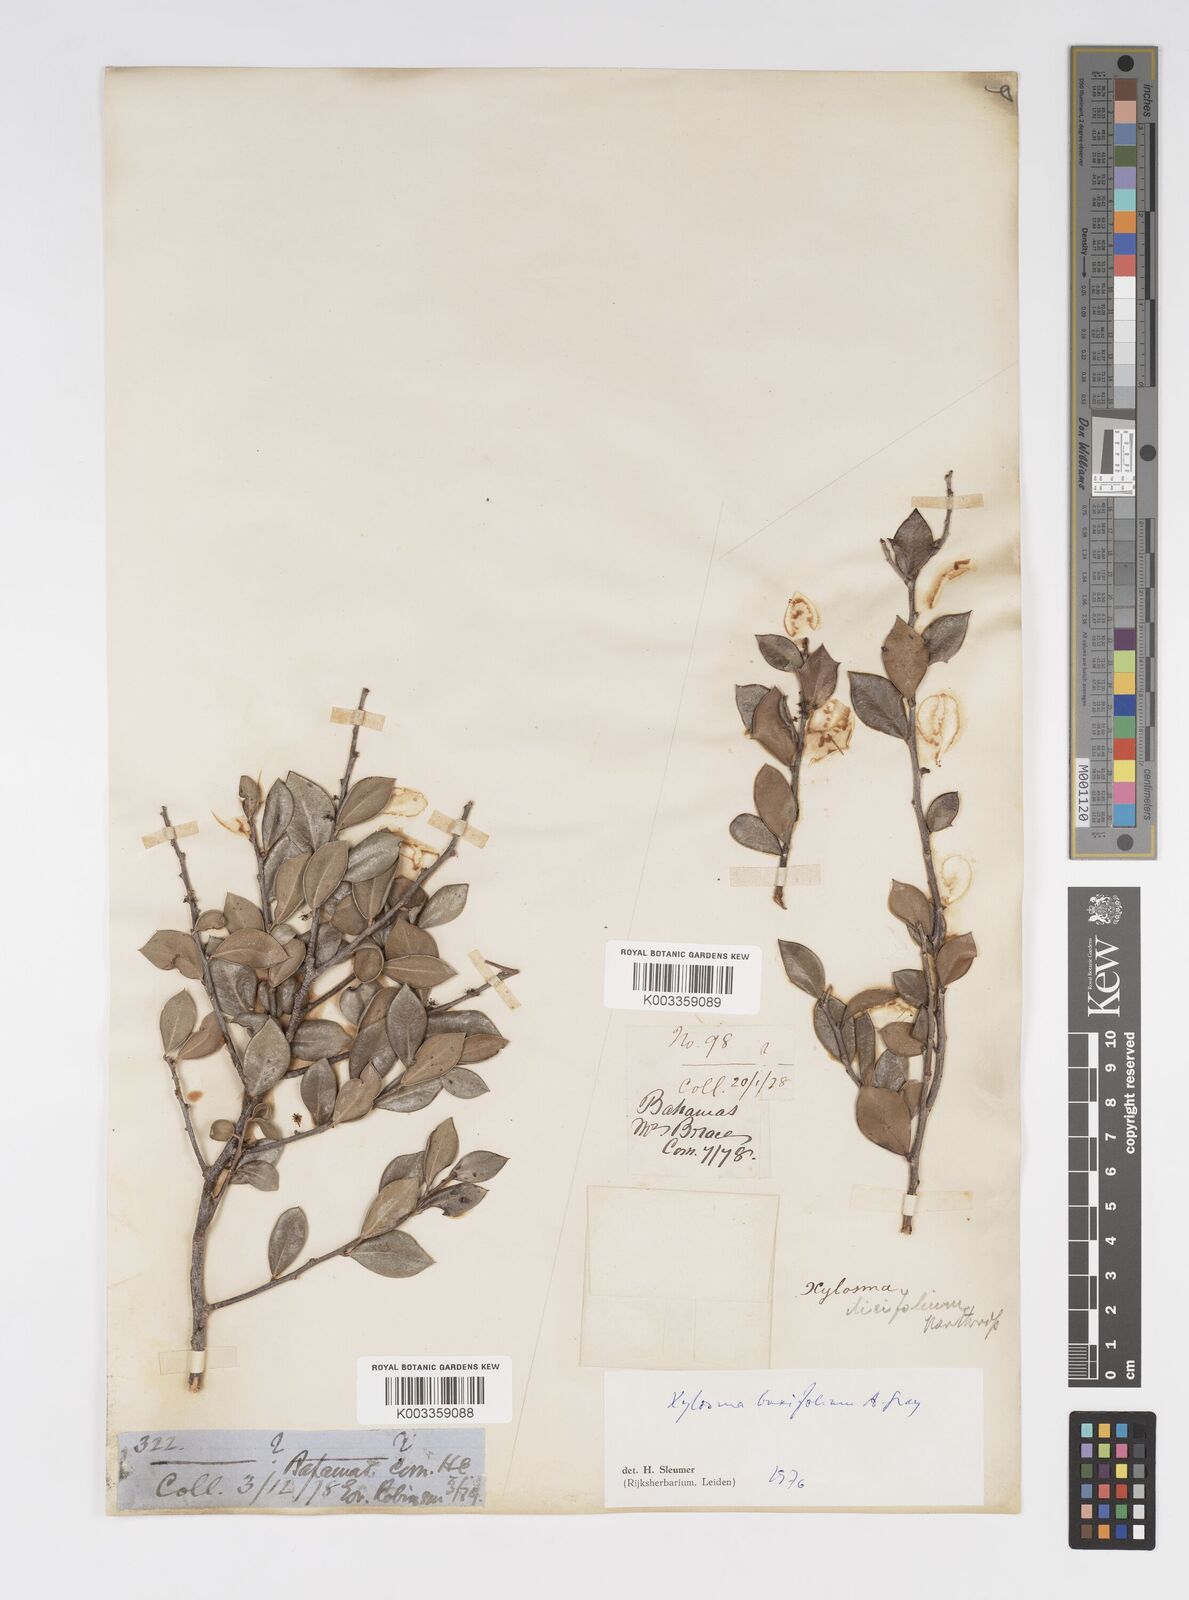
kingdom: Plantae
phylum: Tracheophyta
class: Magnoliopsida
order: Malpighiales
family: Salicaceae
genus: Xylosma
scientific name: Xylosma buxifolia
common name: Cockspur
